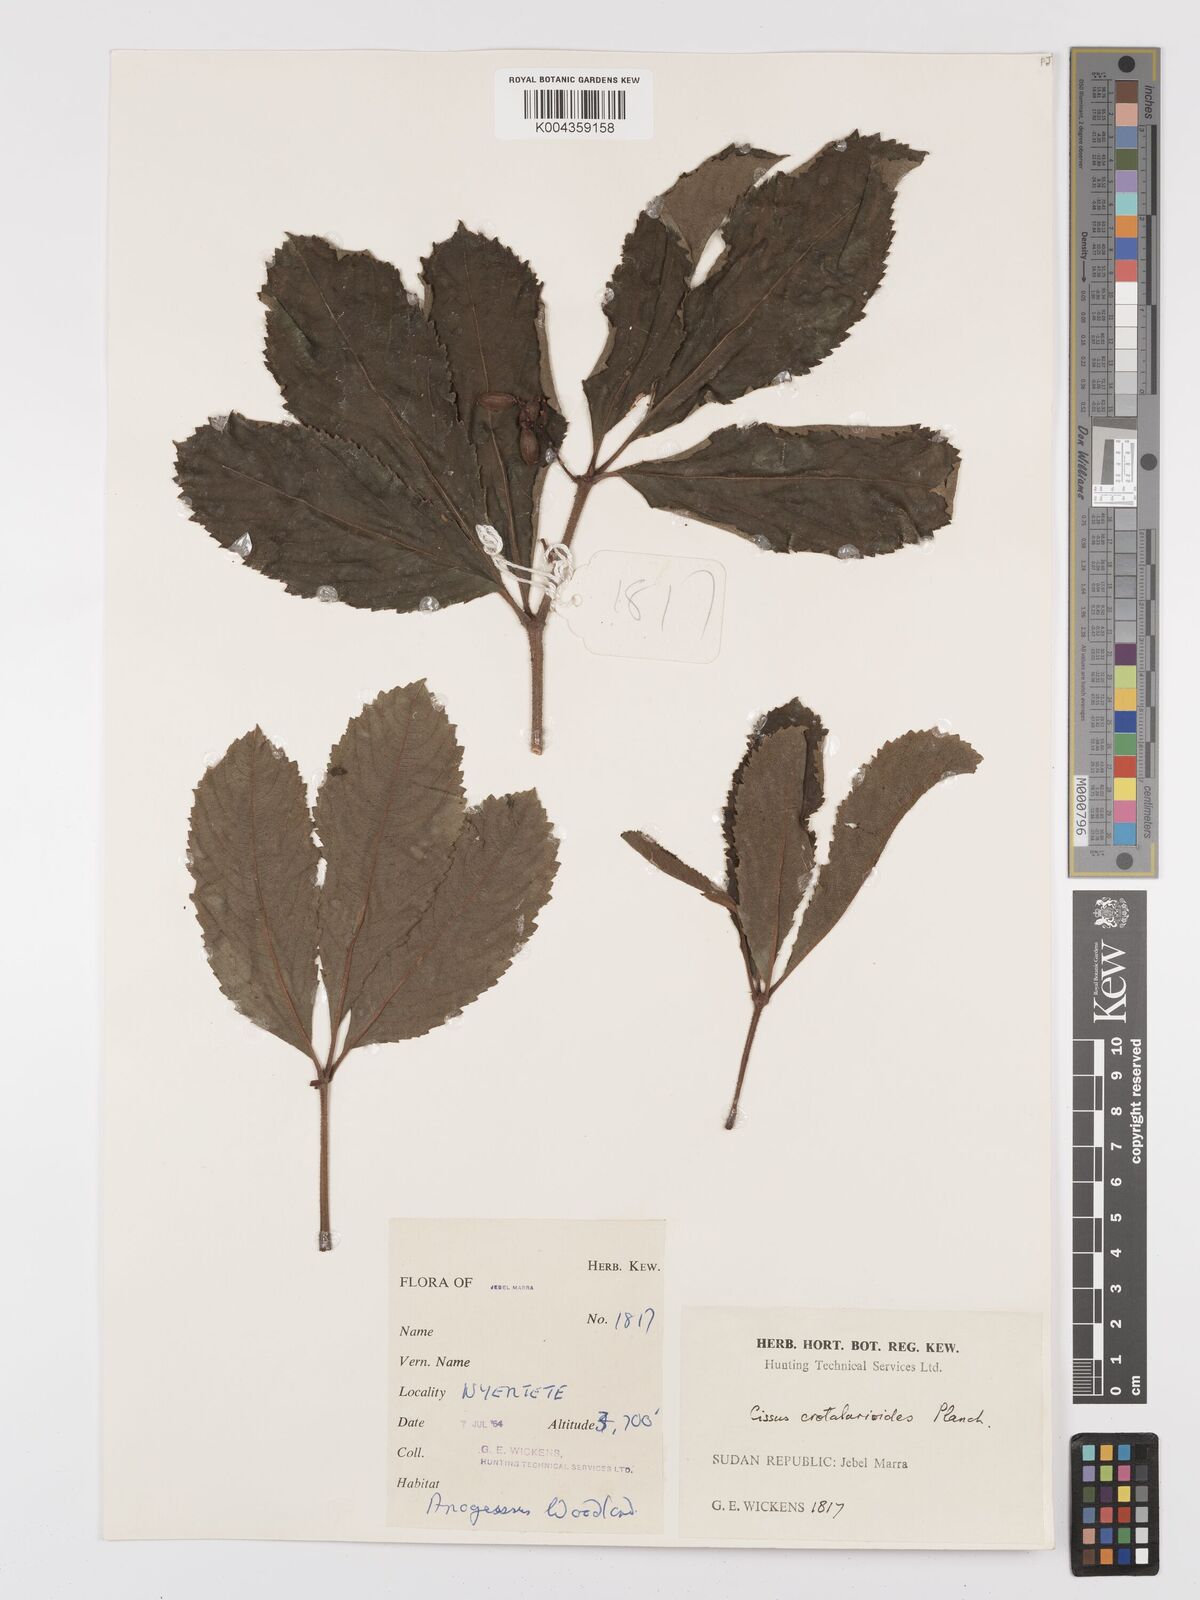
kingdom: Plantae
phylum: Tracheophyta
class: Magnoliopsida
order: Vitales
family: Vitaceae
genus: Cyphostemma
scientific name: Cyphostemma crotalarioides
